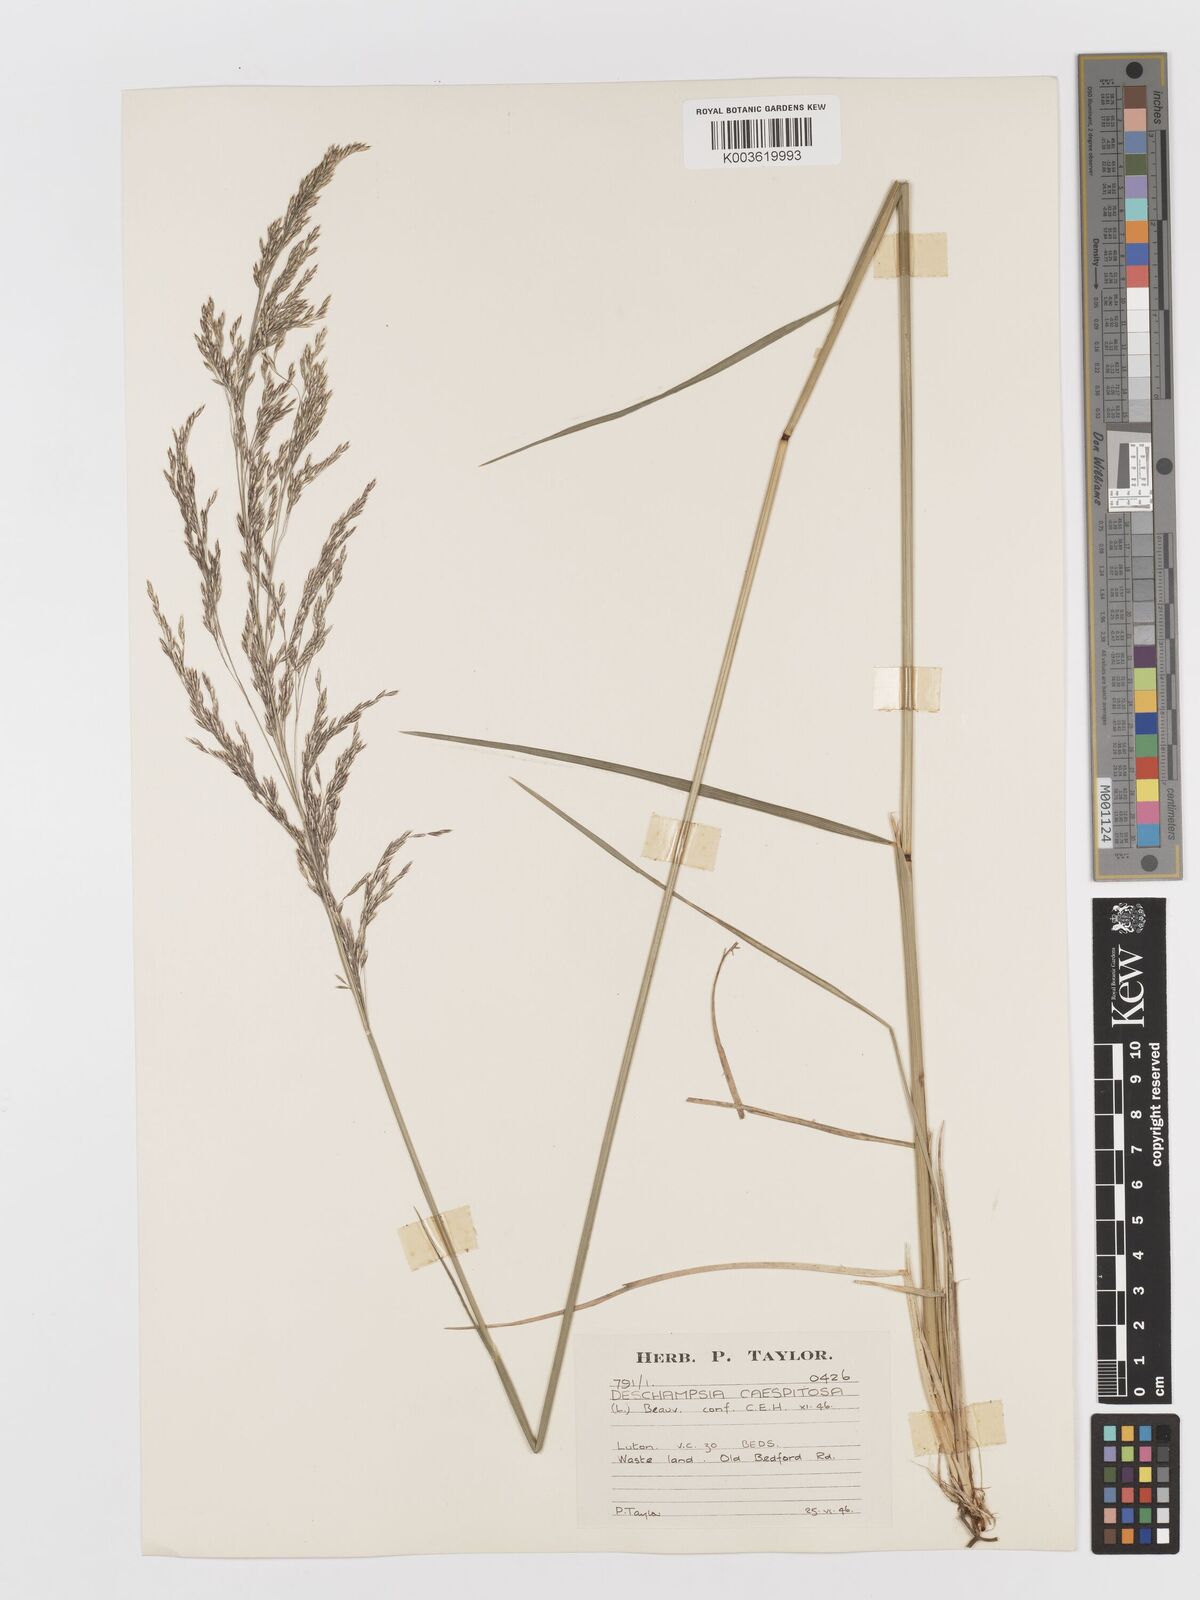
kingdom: Plantae
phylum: Tracheophyta
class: Liliopsida
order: Poales
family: Poaceae
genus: Deschampsia
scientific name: Deschampsia cespitosa
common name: Tufted hair-grass
